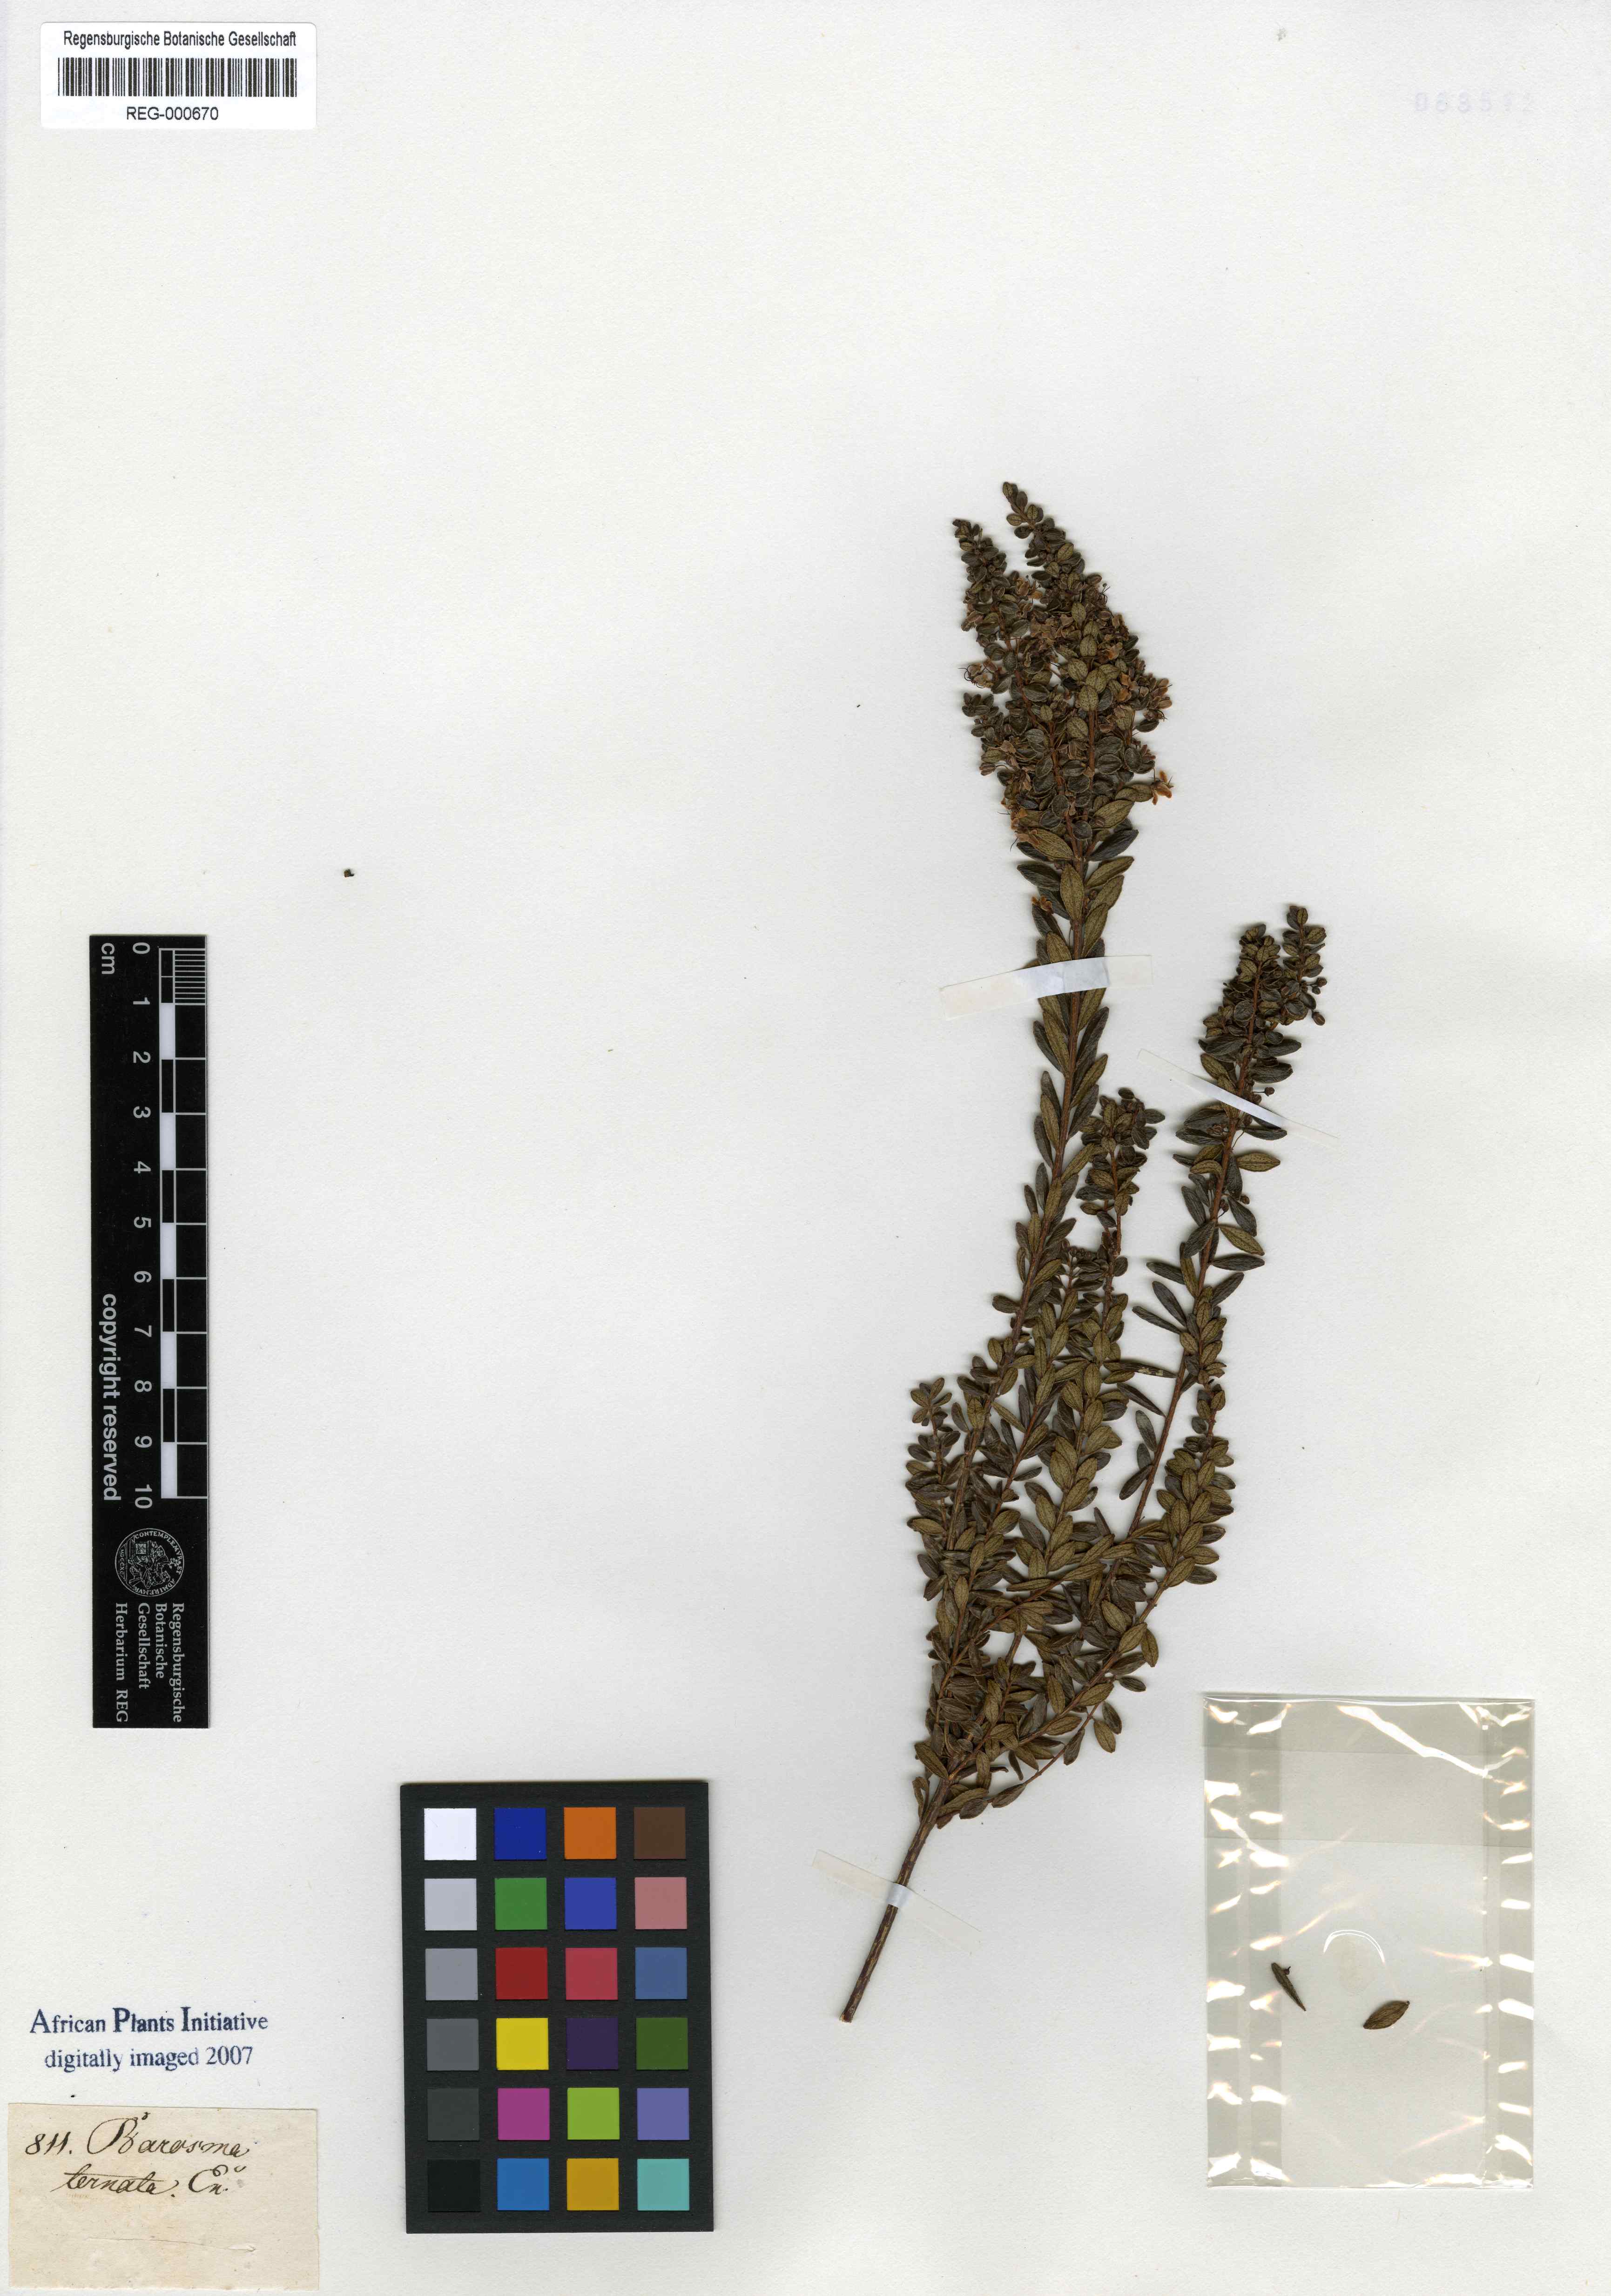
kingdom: Plantae
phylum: Tracheophyta
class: Magnoliopsida
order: Sapindales
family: Rutaceae
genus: Agathosma
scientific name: Agathosma ovata
